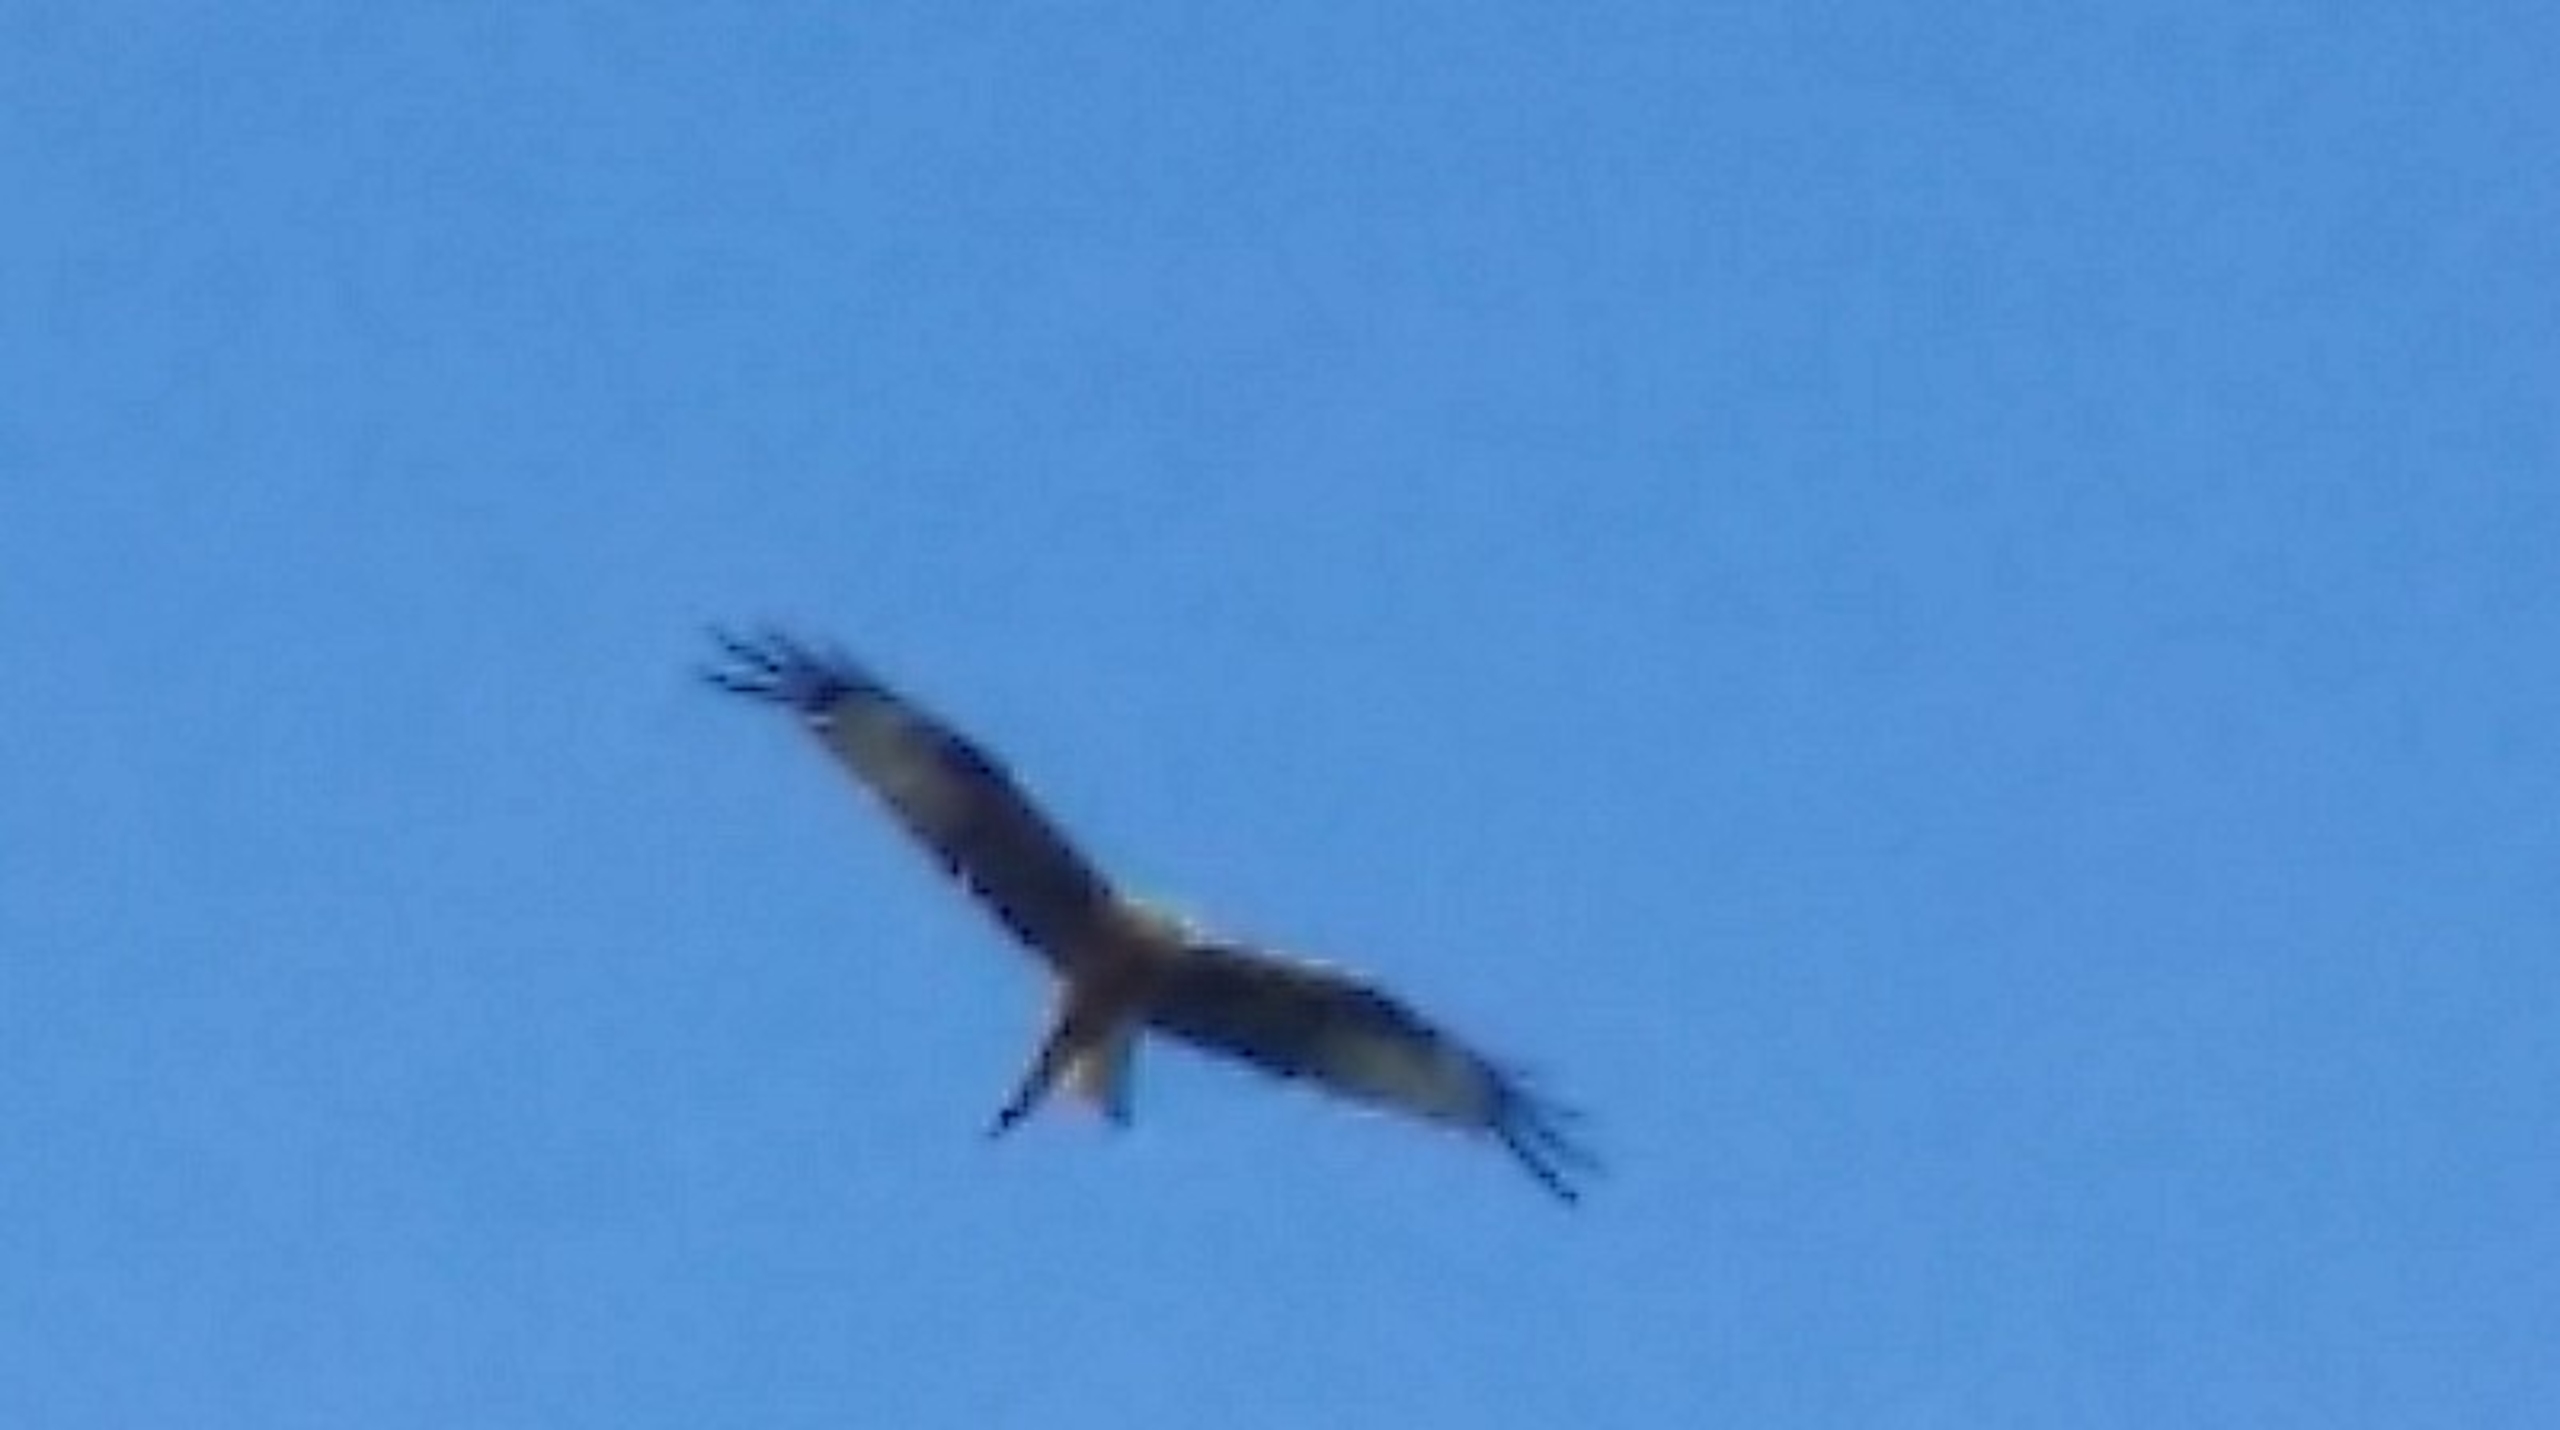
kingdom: Animalia
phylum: Chordata
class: Aves
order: Accipitriformes
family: Accipitridae
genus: Milvus
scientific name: Milvus milvus
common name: Rød glente
